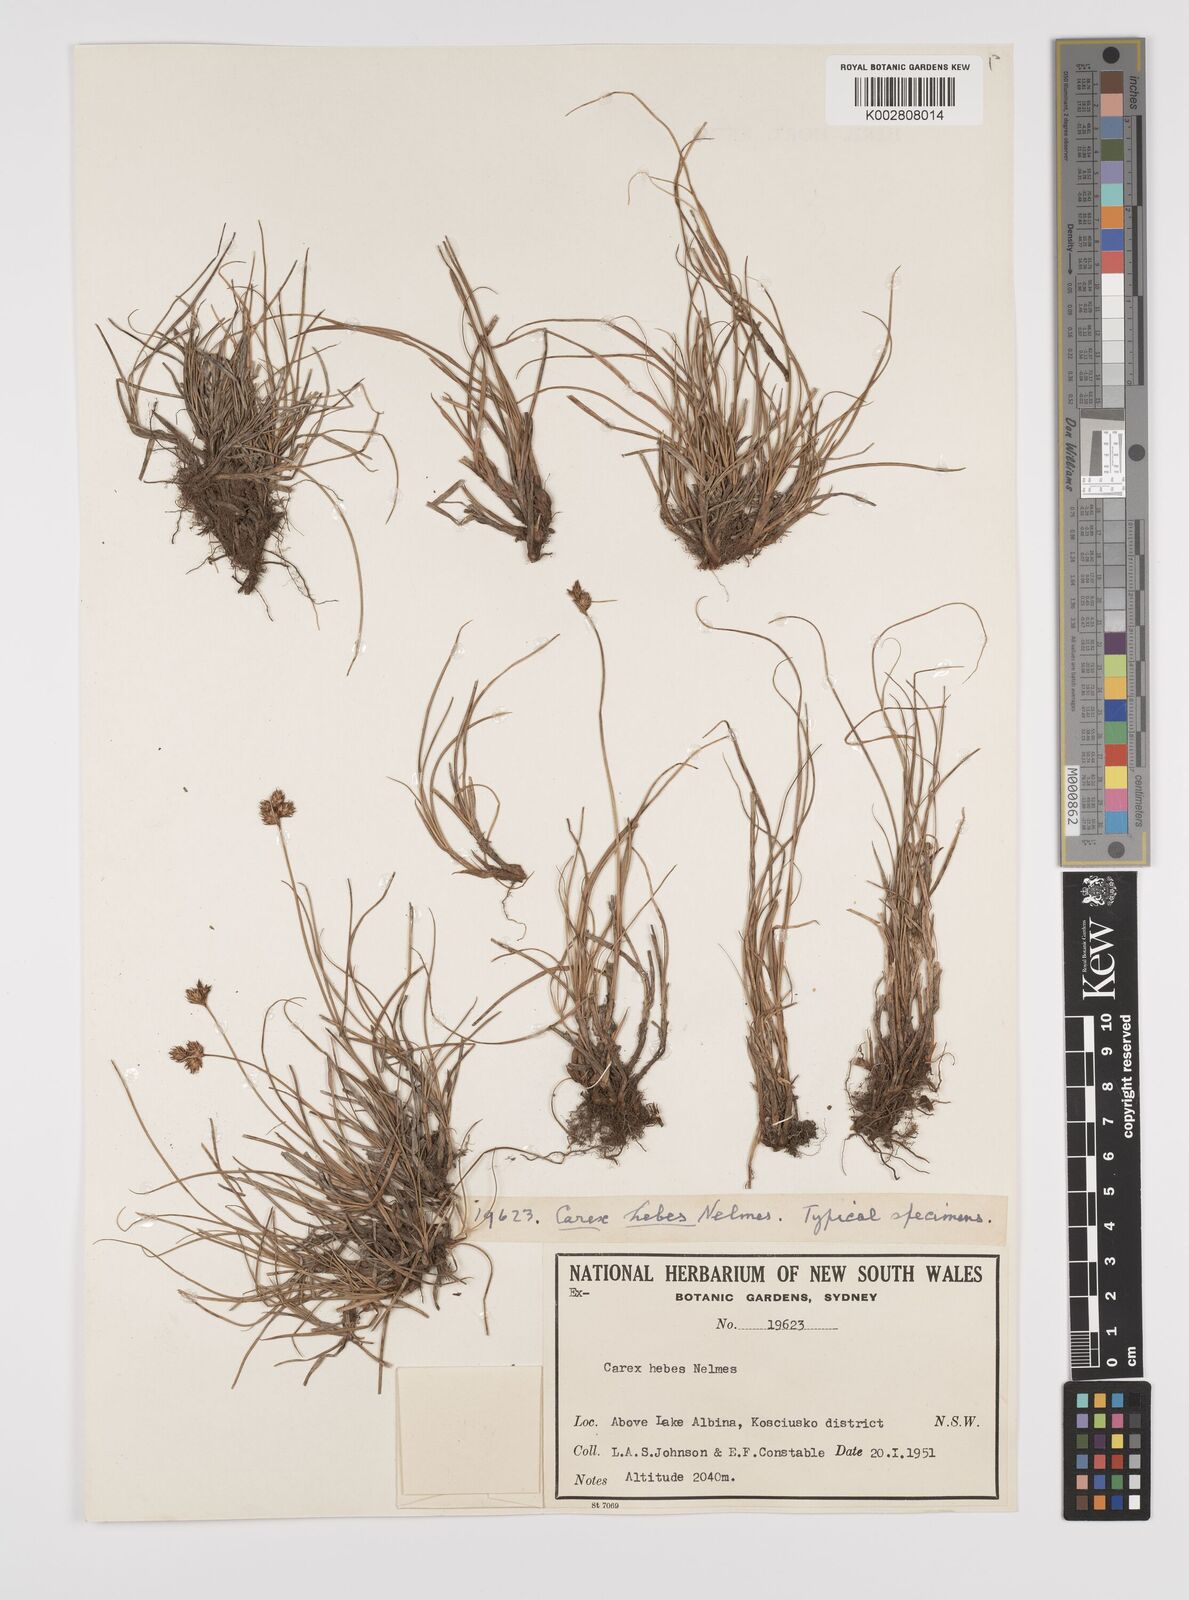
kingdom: Plantae
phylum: Tracheophyta
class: Liliopsida
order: Poales
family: Cyperaceae
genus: Carex
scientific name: Carex hebes
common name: Dry land sedge
